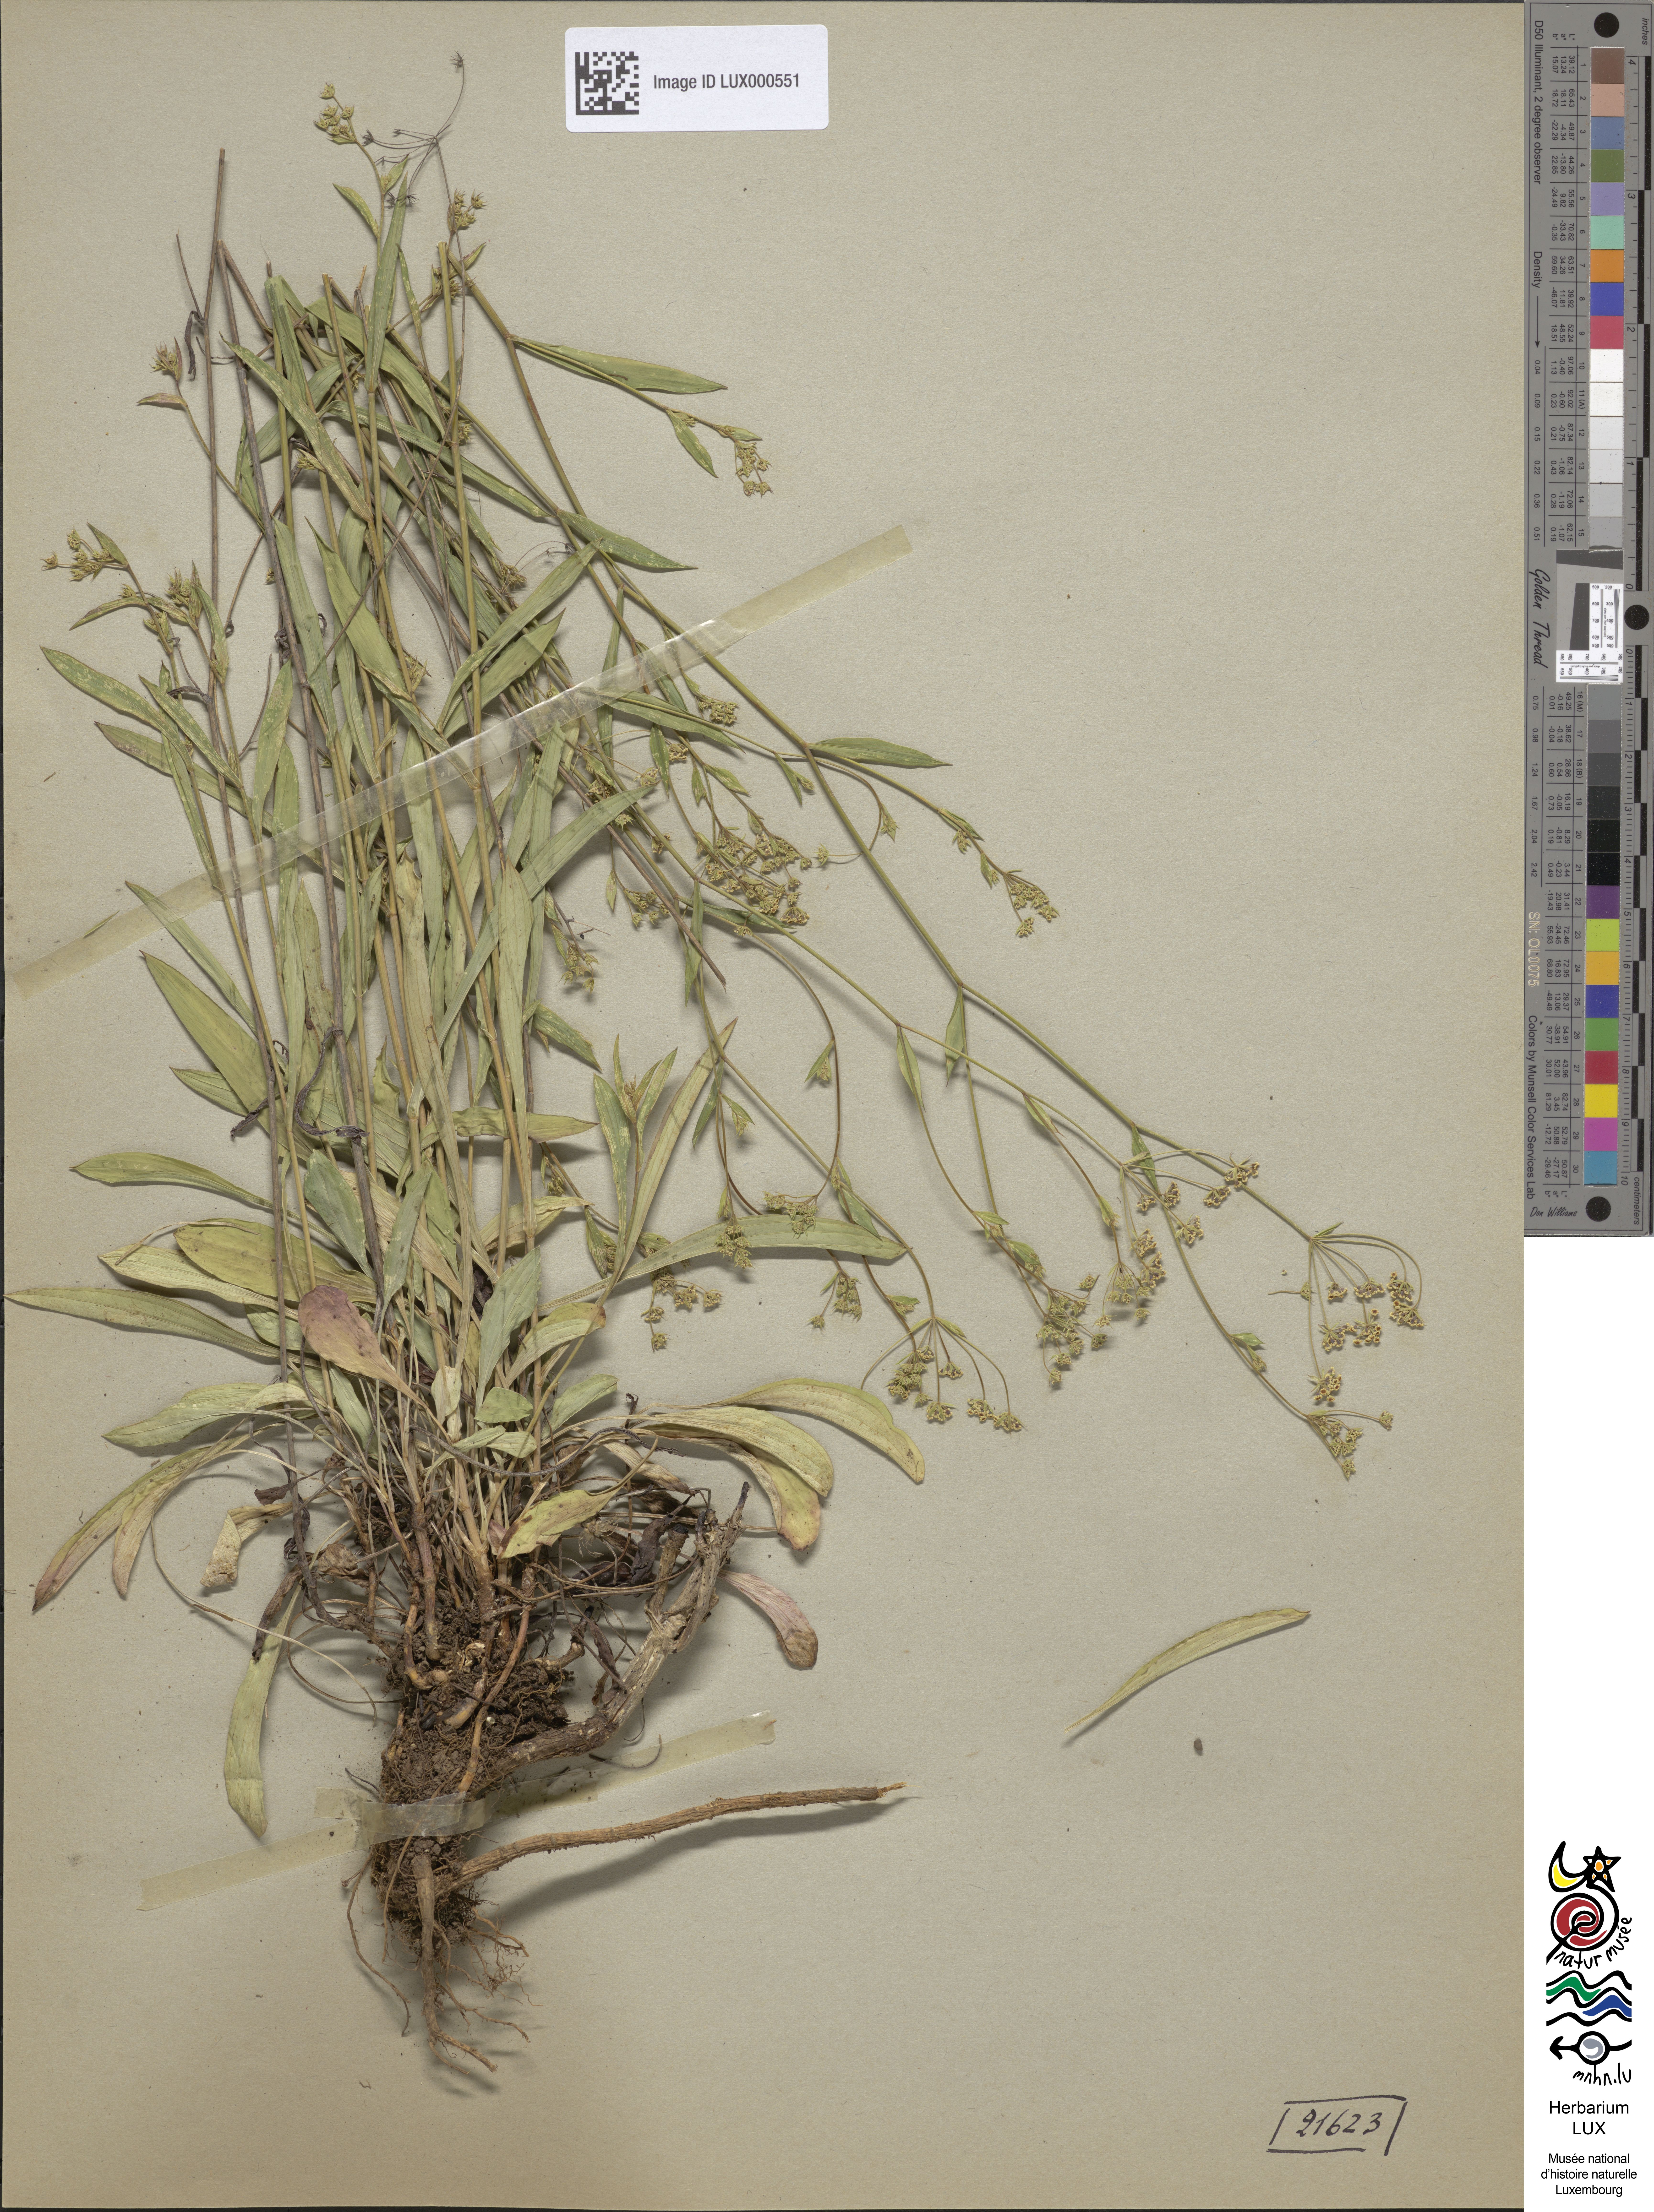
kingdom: Plantae
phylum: Tracheophyta
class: Magnoliopsida
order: Apiales
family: Apiaceae
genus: Bupleurum
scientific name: Bupleurum falcatum
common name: Sickle-leaved hare's-ear
